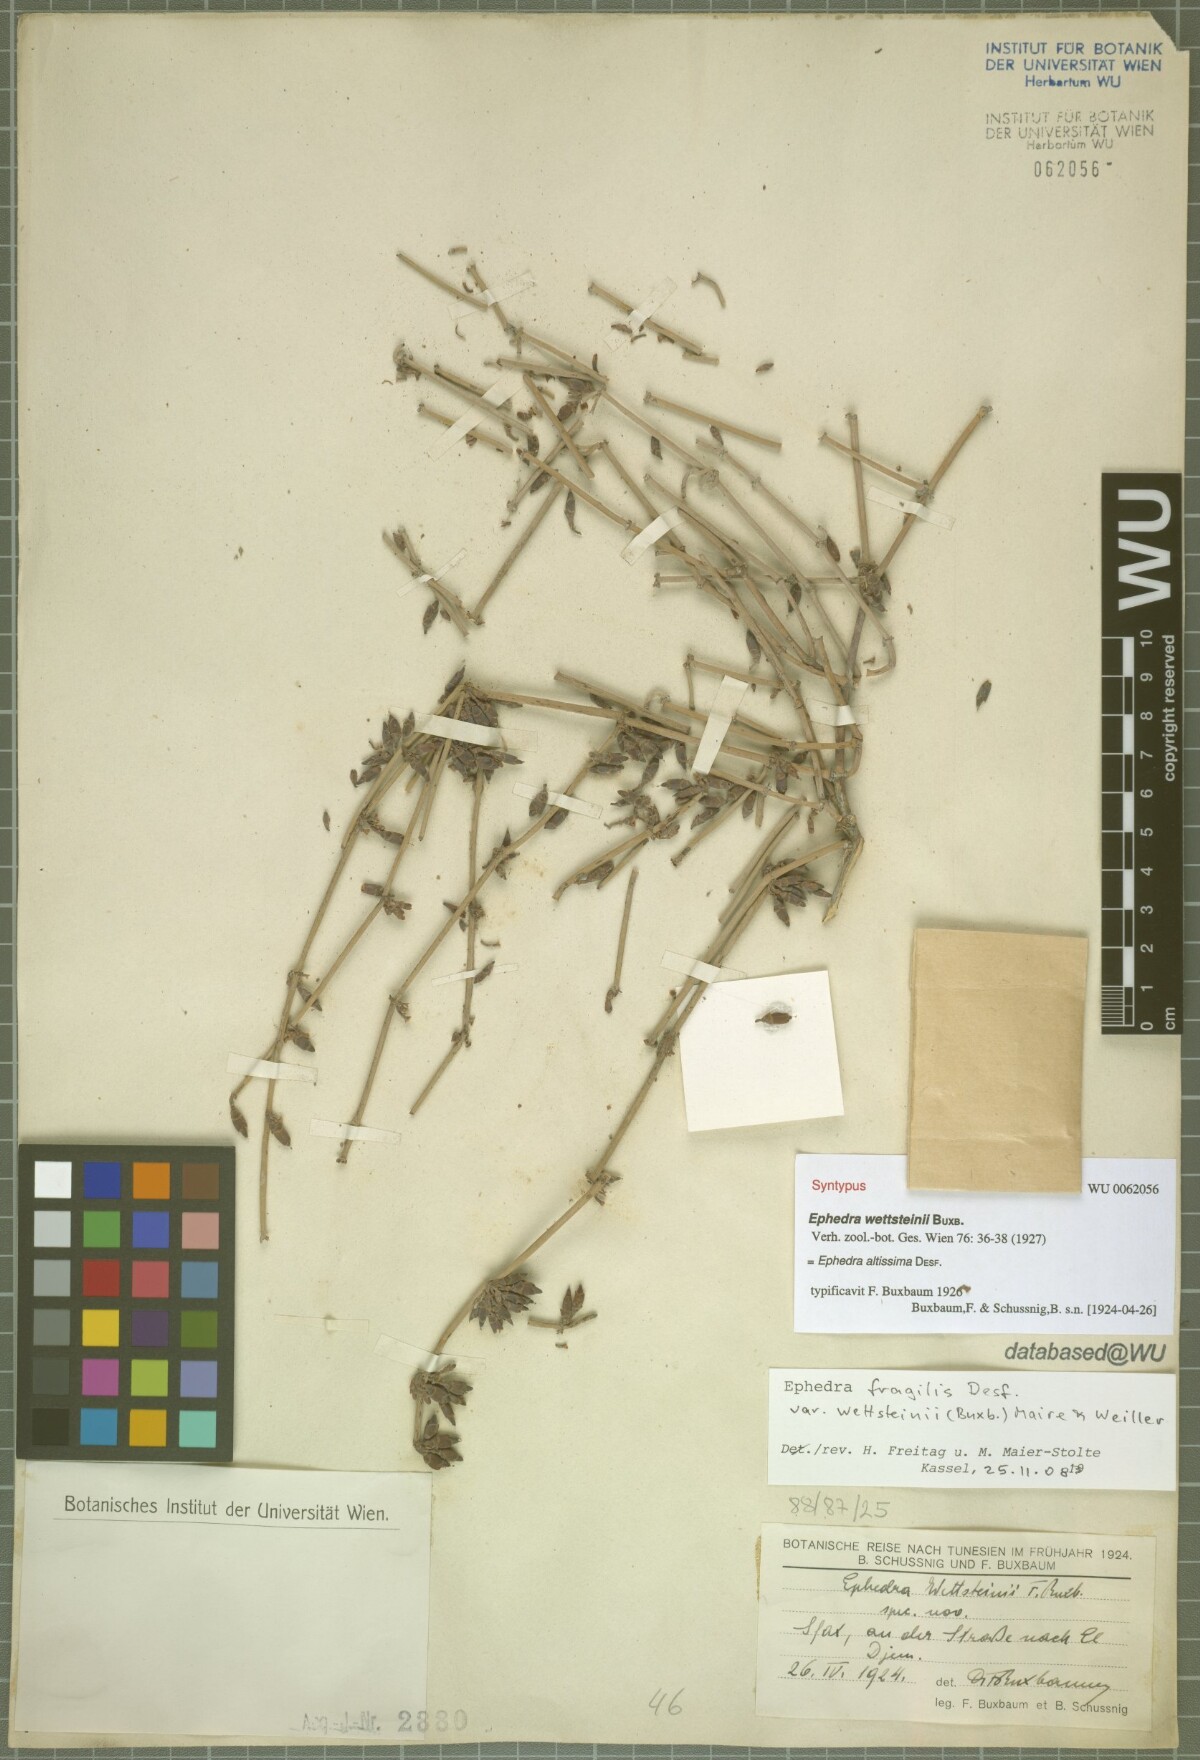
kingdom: Plantae
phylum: Tracheophyta
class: Gnetopsida
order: Ephedrales
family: Ephedraceae
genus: Ephedra
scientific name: Ephedra fragilis
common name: Joint pine
